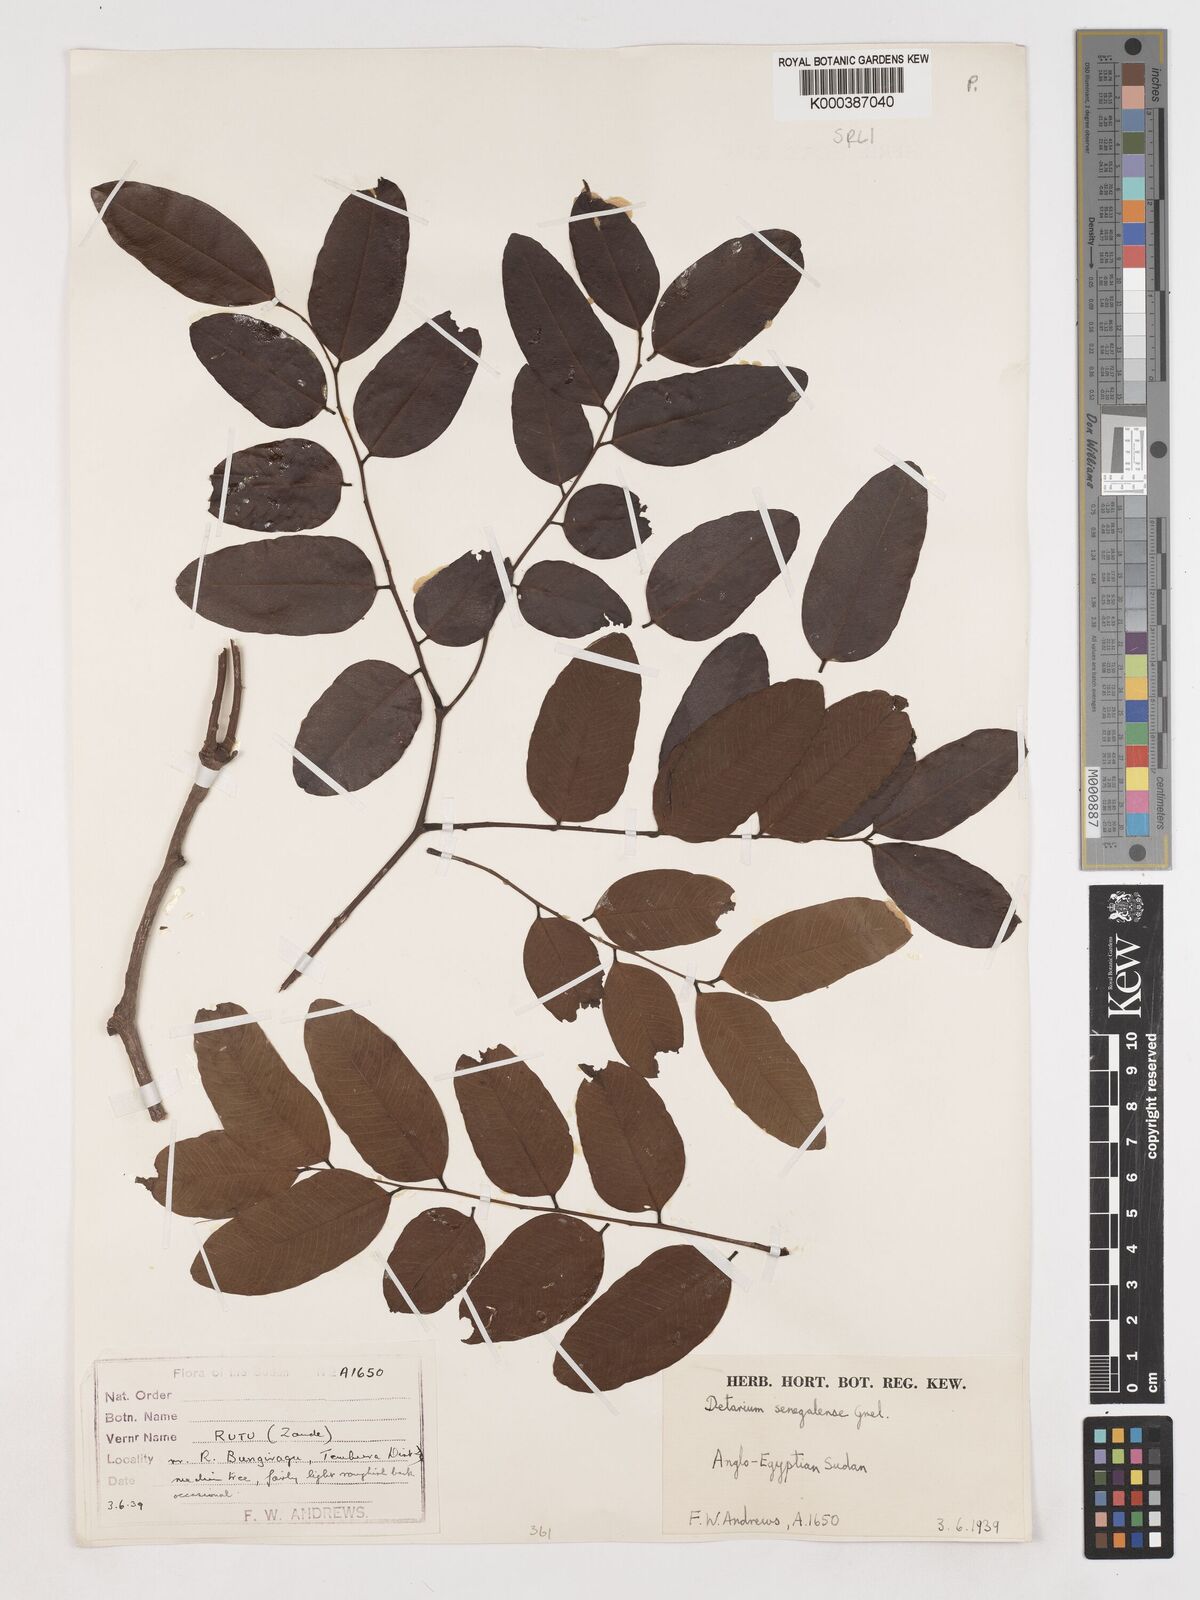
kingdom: Plantae
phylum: Tracheophyta
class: Magnoliopsida
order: Fabales
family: Fabaceae
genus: Detarium
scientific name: Detarium microcarpum
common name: Sweet dattock
